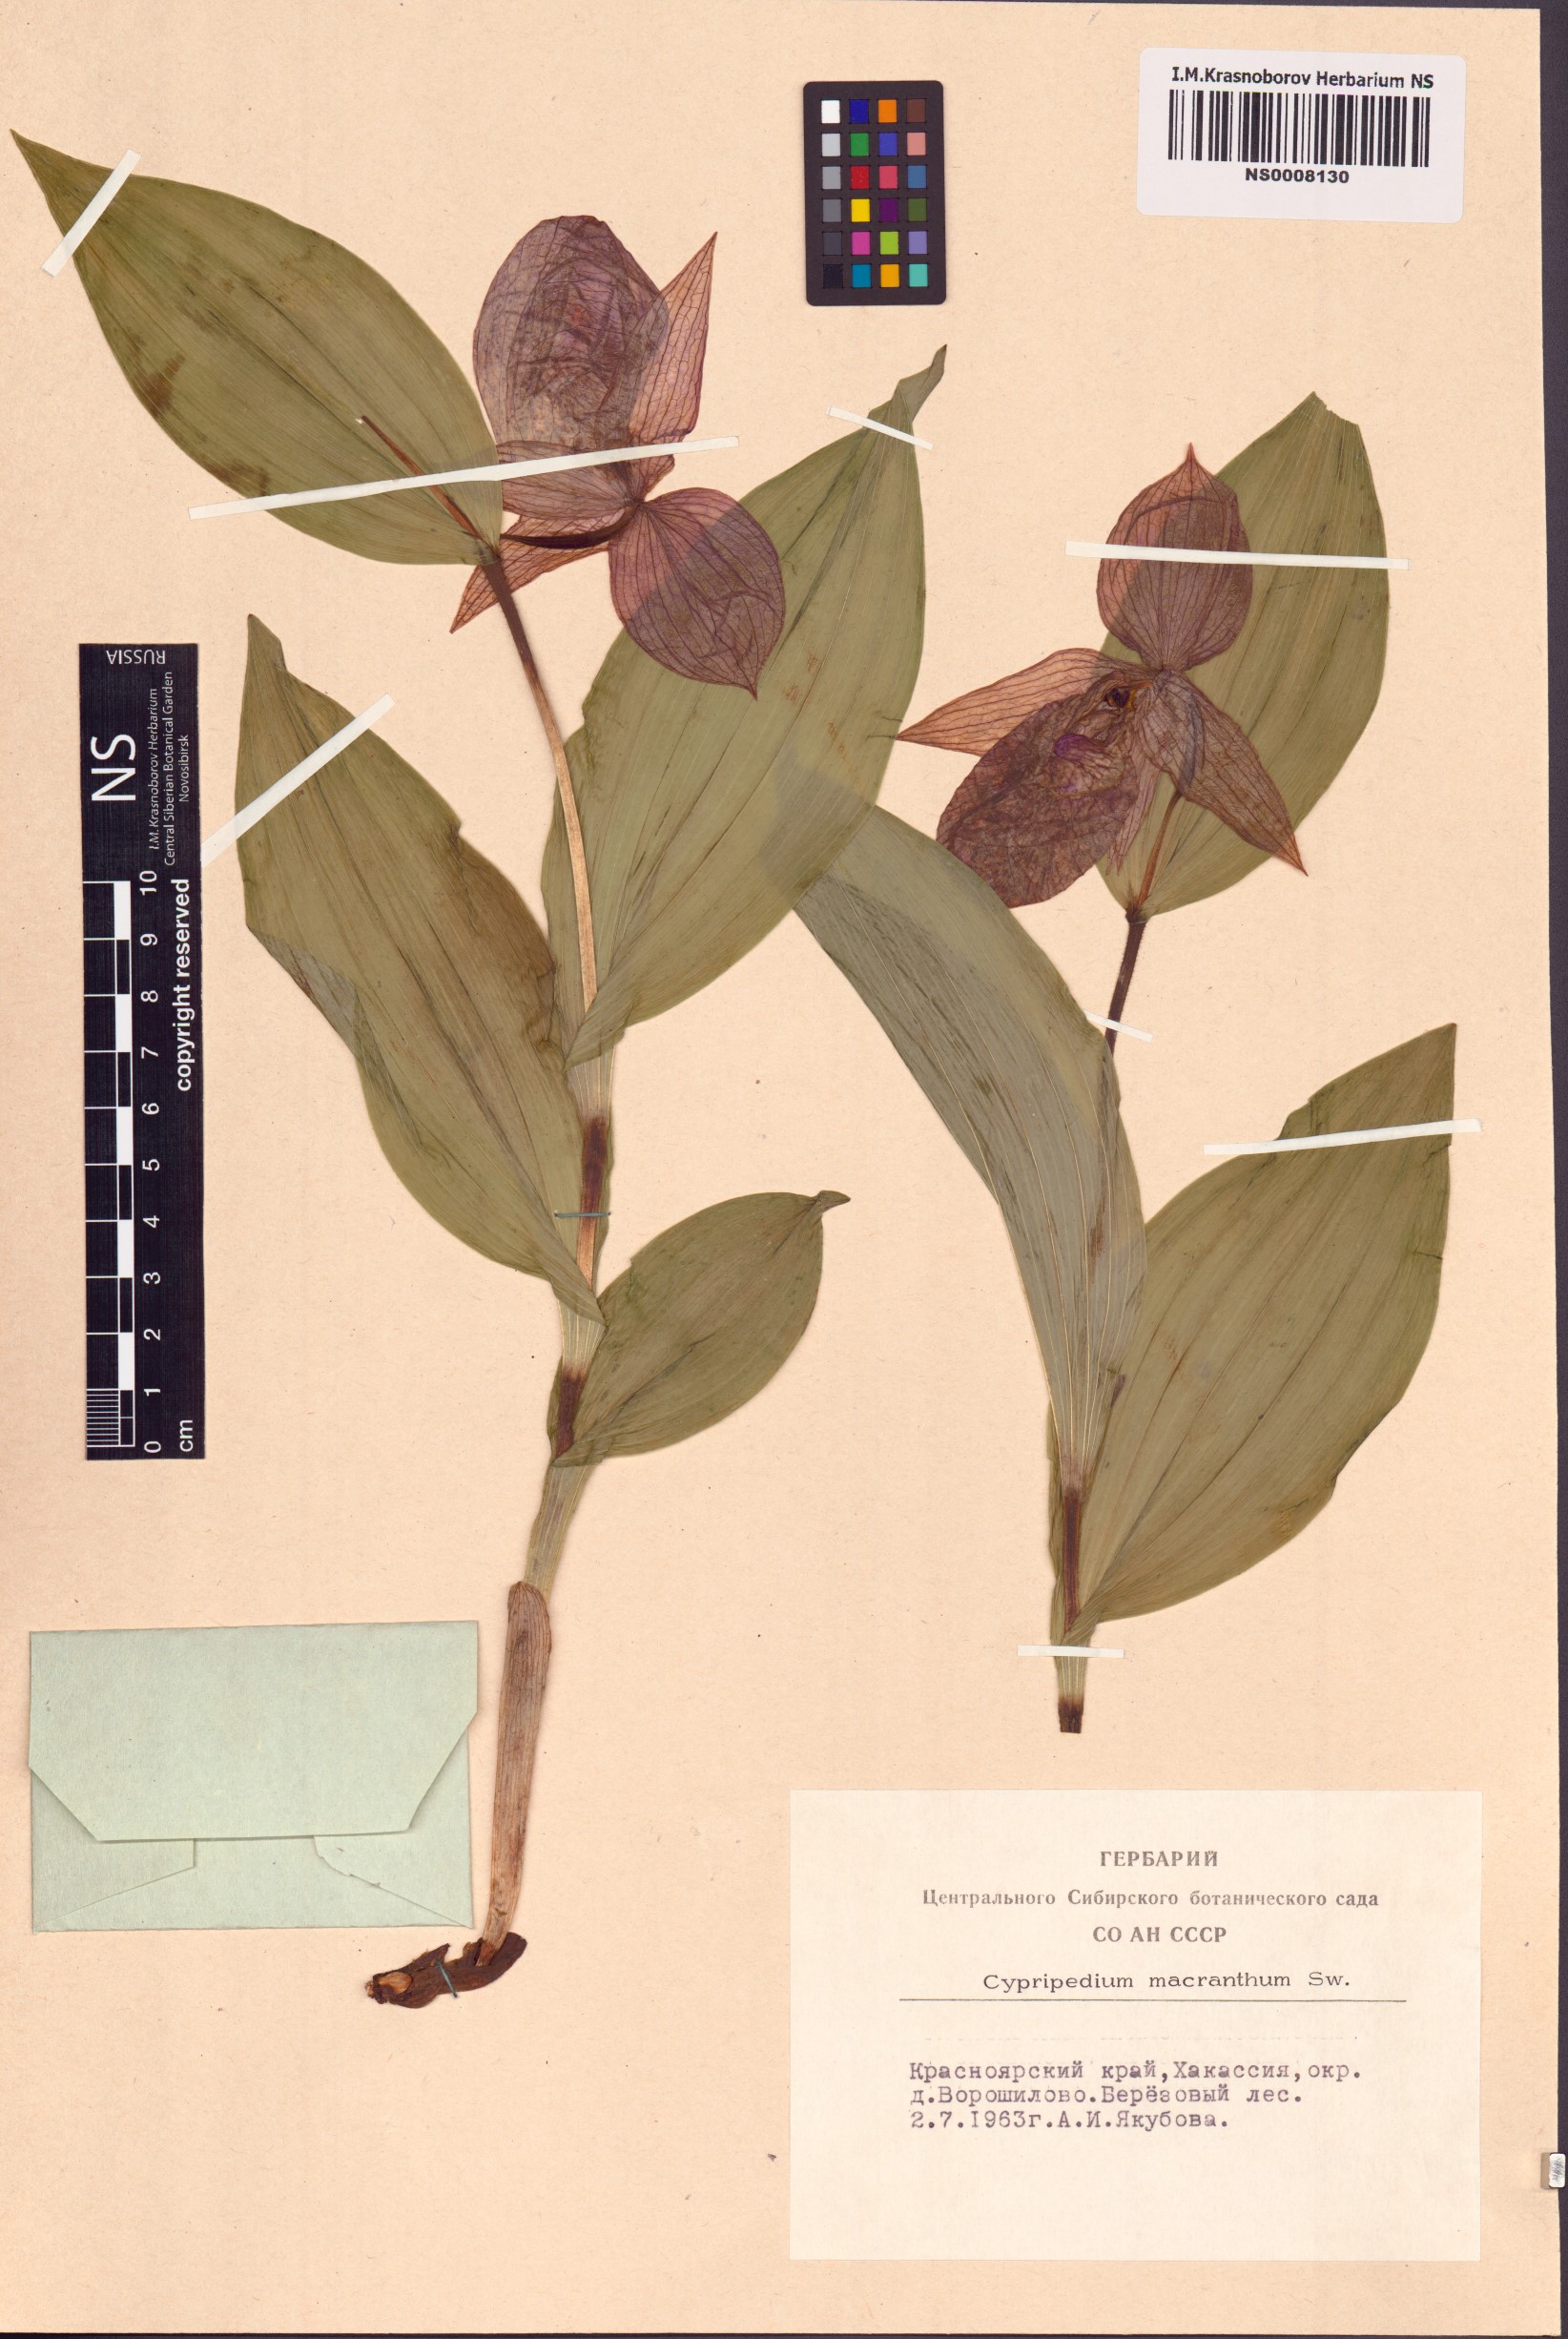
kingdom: Plantae
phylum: Tracheophyta
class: Liliopsida
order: Asparagales
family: Orchidaceae
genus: Cypripedium
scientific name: Cypripedium macranthos
